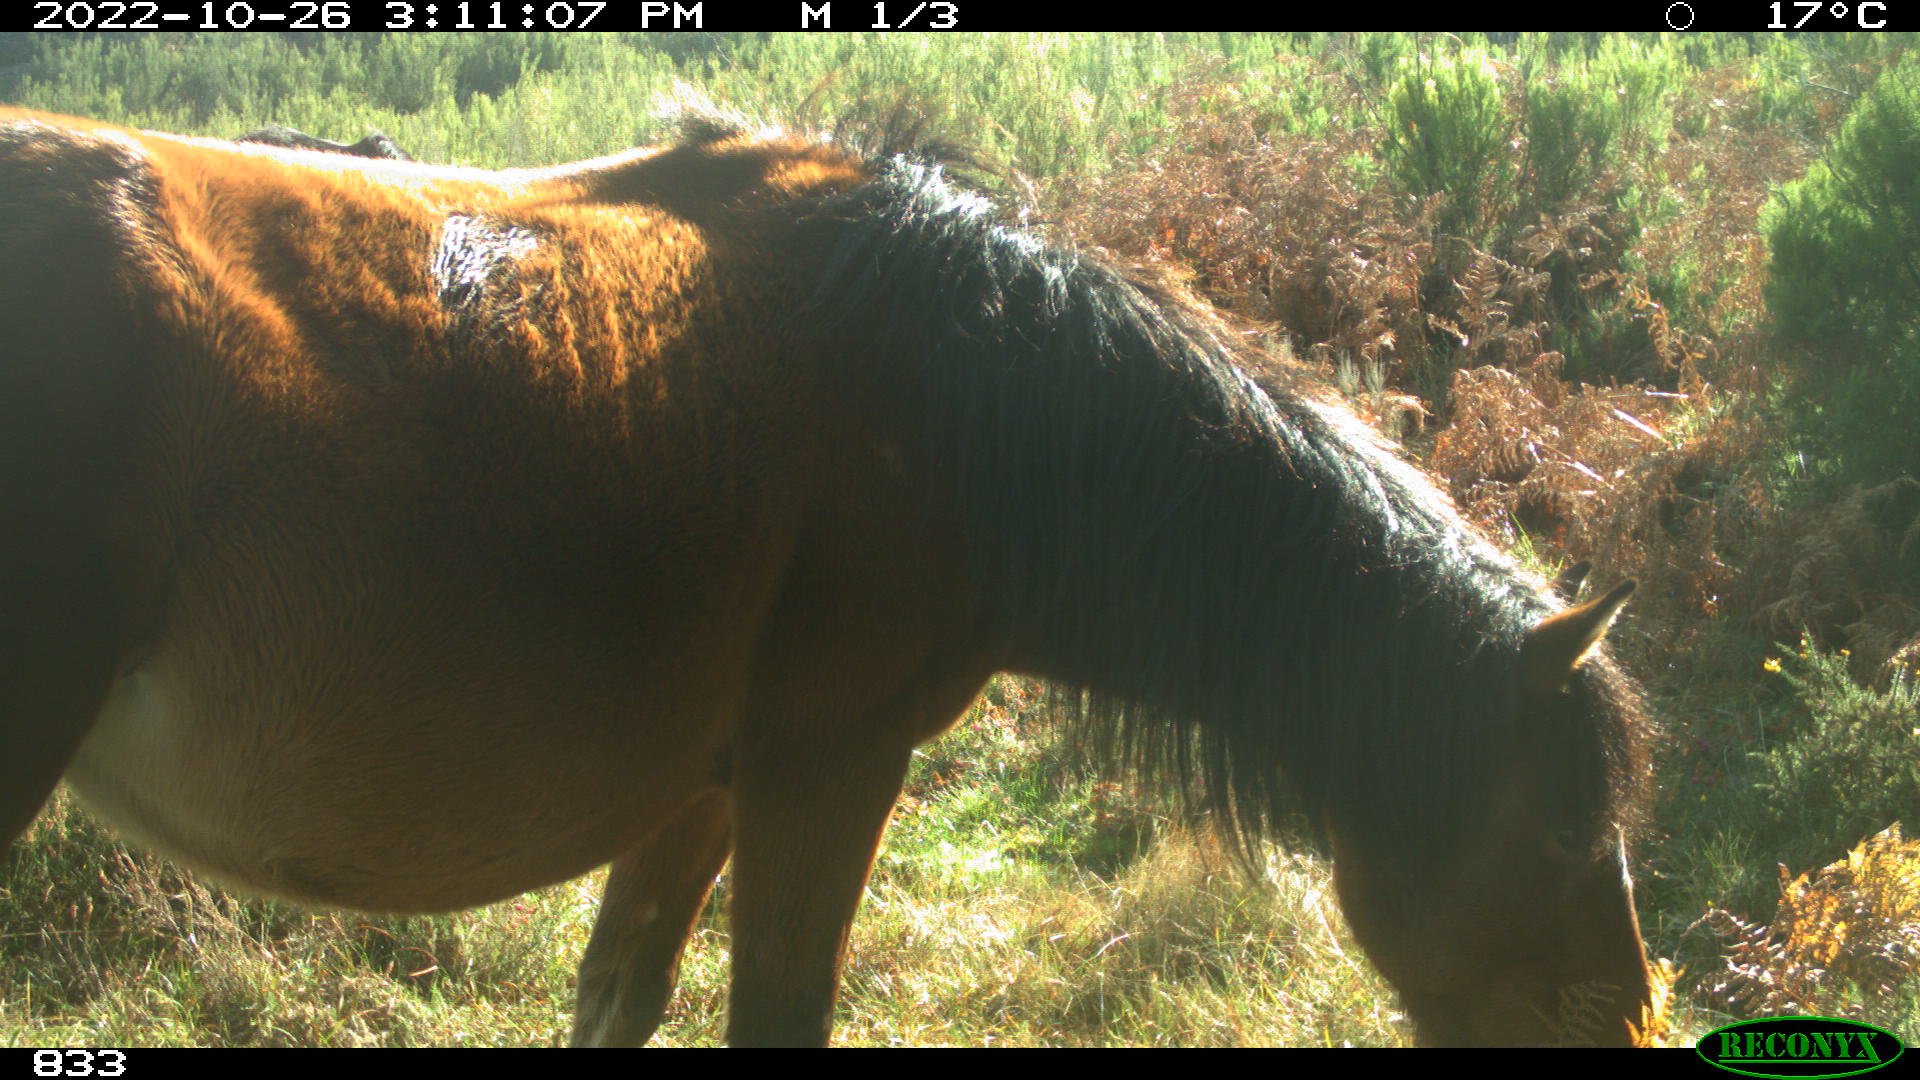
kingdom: Animalia
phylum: Chordata
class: Mammalia
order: Perissodactyla
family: Equidae
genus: Equus
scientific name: Equus caballus
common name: Horse
